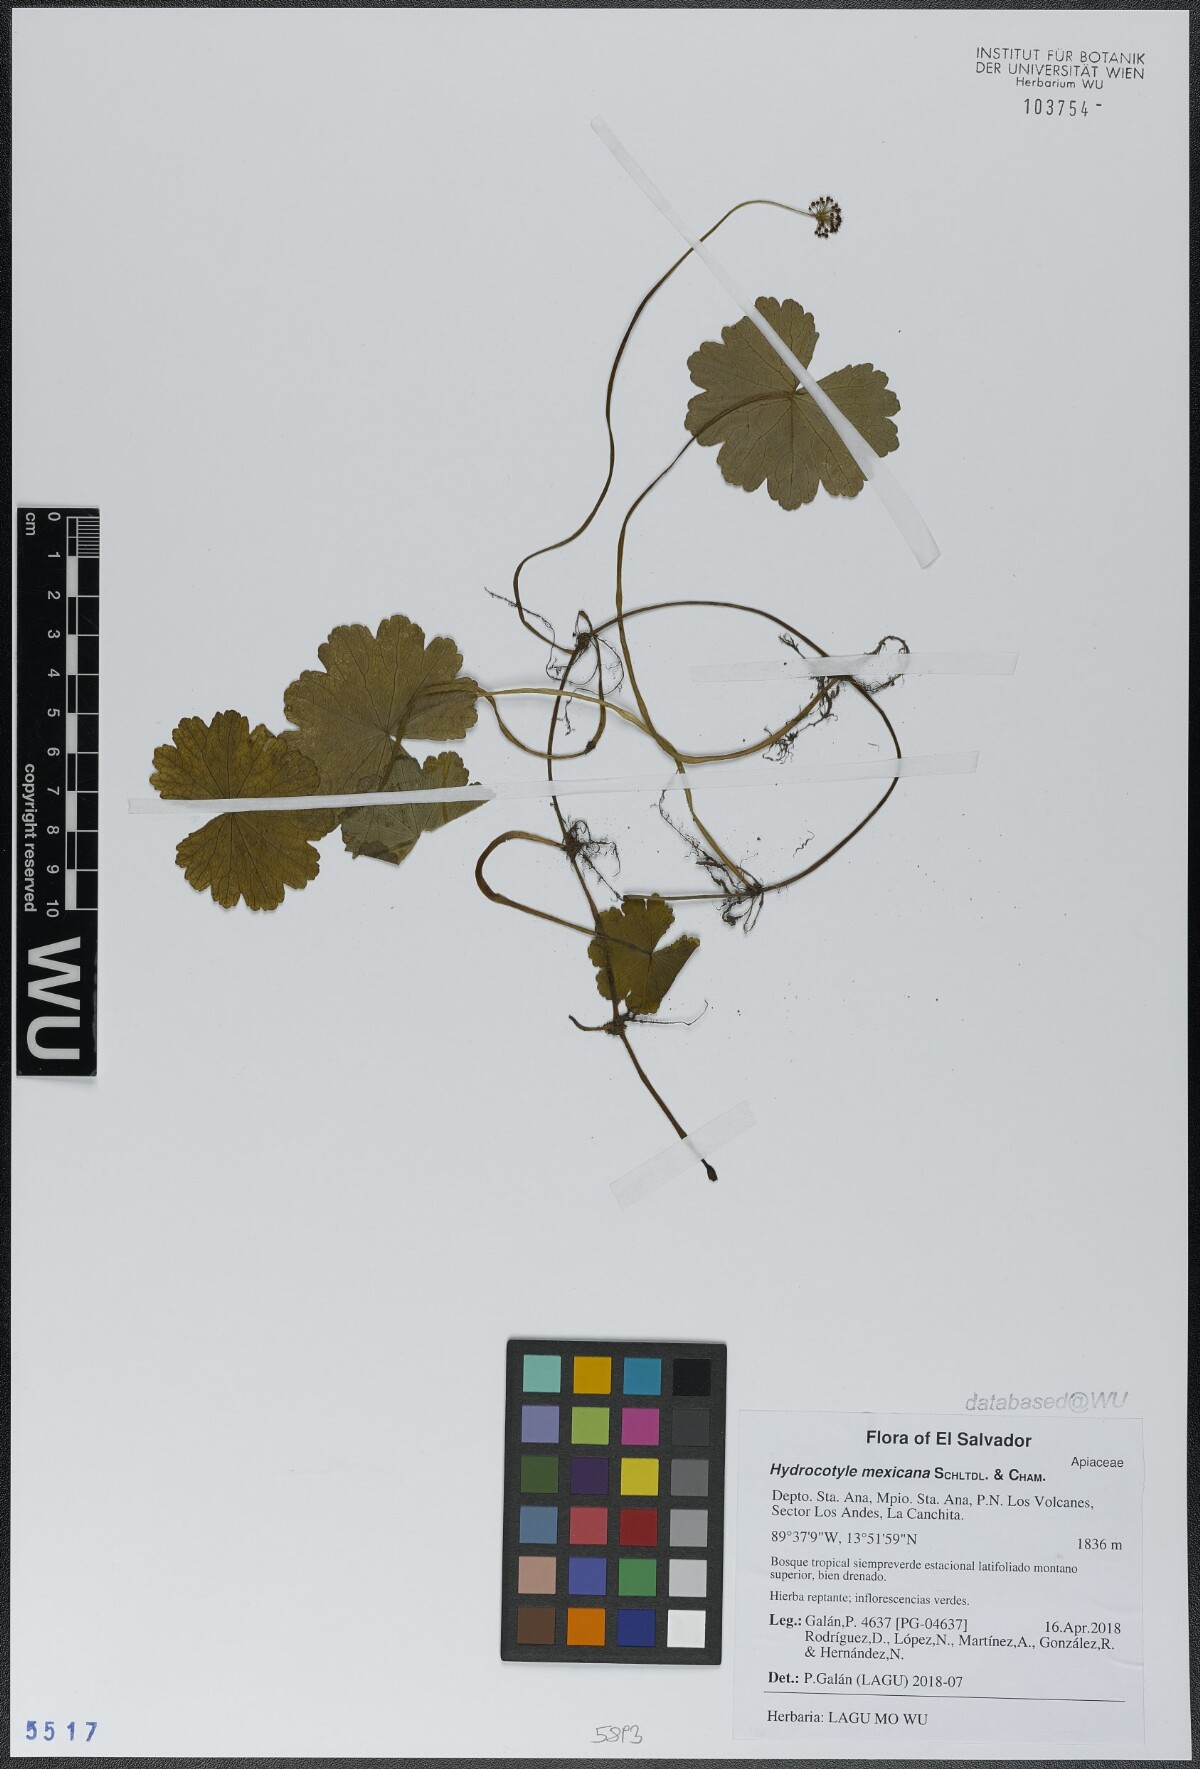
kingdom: Plantae
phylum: Tracheophyta
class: Magnoliopsida
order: Apiales
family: Araliaceae
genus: Hydrocotyle
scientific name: Hydrocotyle mexicana
